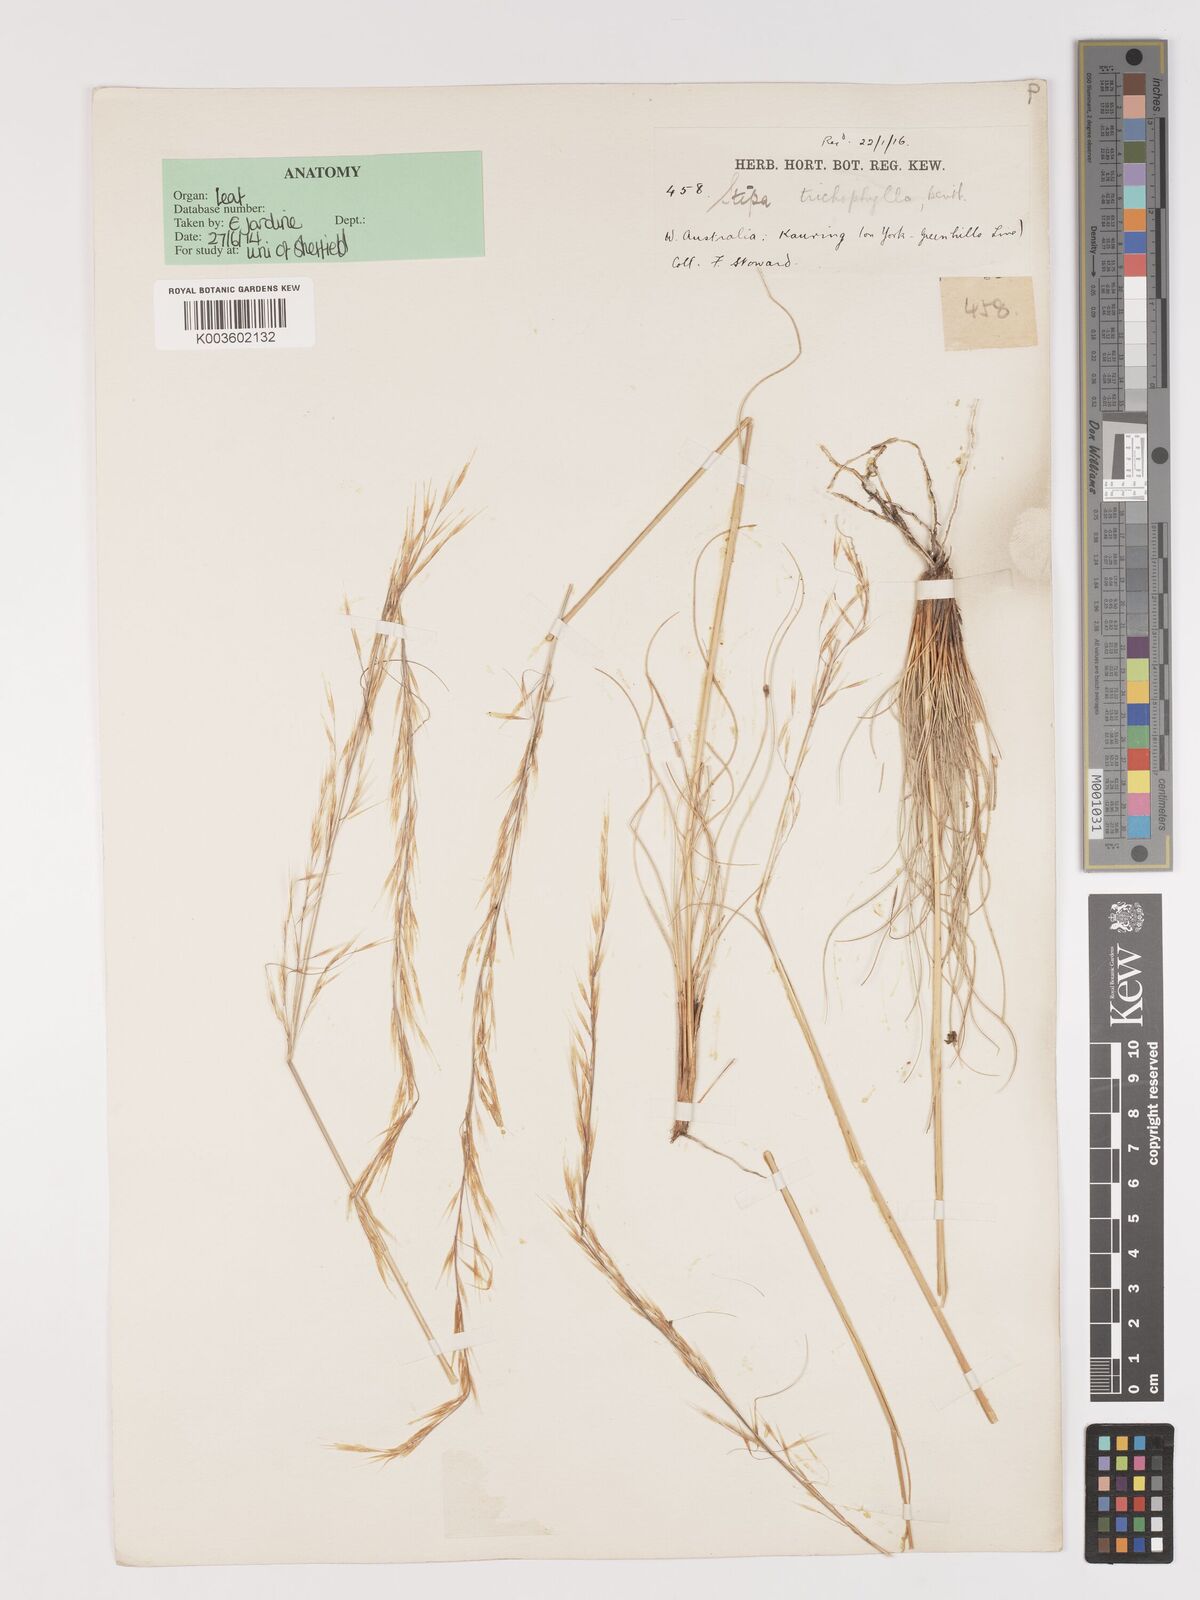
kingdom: Plantae
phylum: Tracheophyta
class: Liliopsida
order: Poales
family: Poaceae
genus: Austrostipa
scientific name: Austrostipa trichophylla
